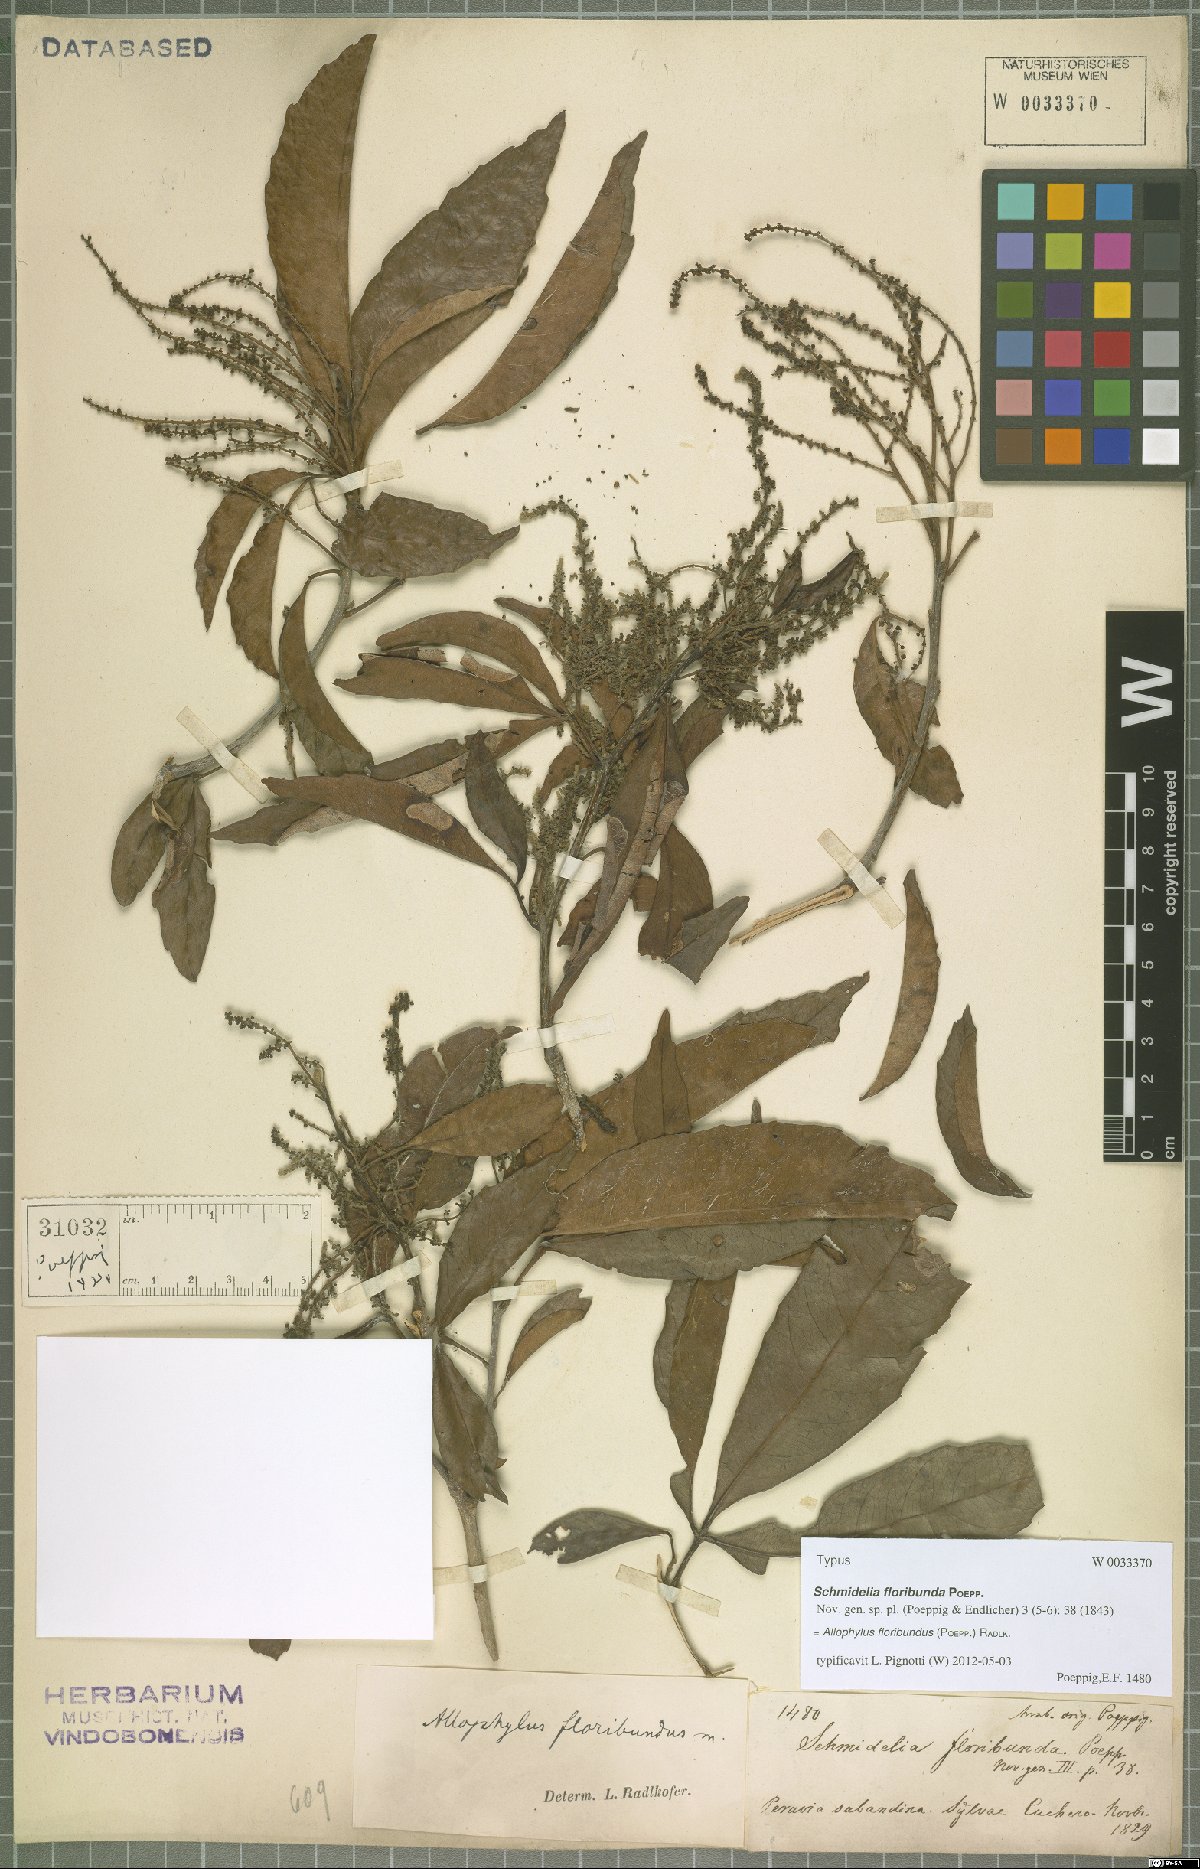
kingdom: Plantae
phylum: Tracheophyta
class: Magnoliopsida
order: Sapindales
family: Sapindaceae
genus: Allophylus
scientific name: Allophylus floribundus
